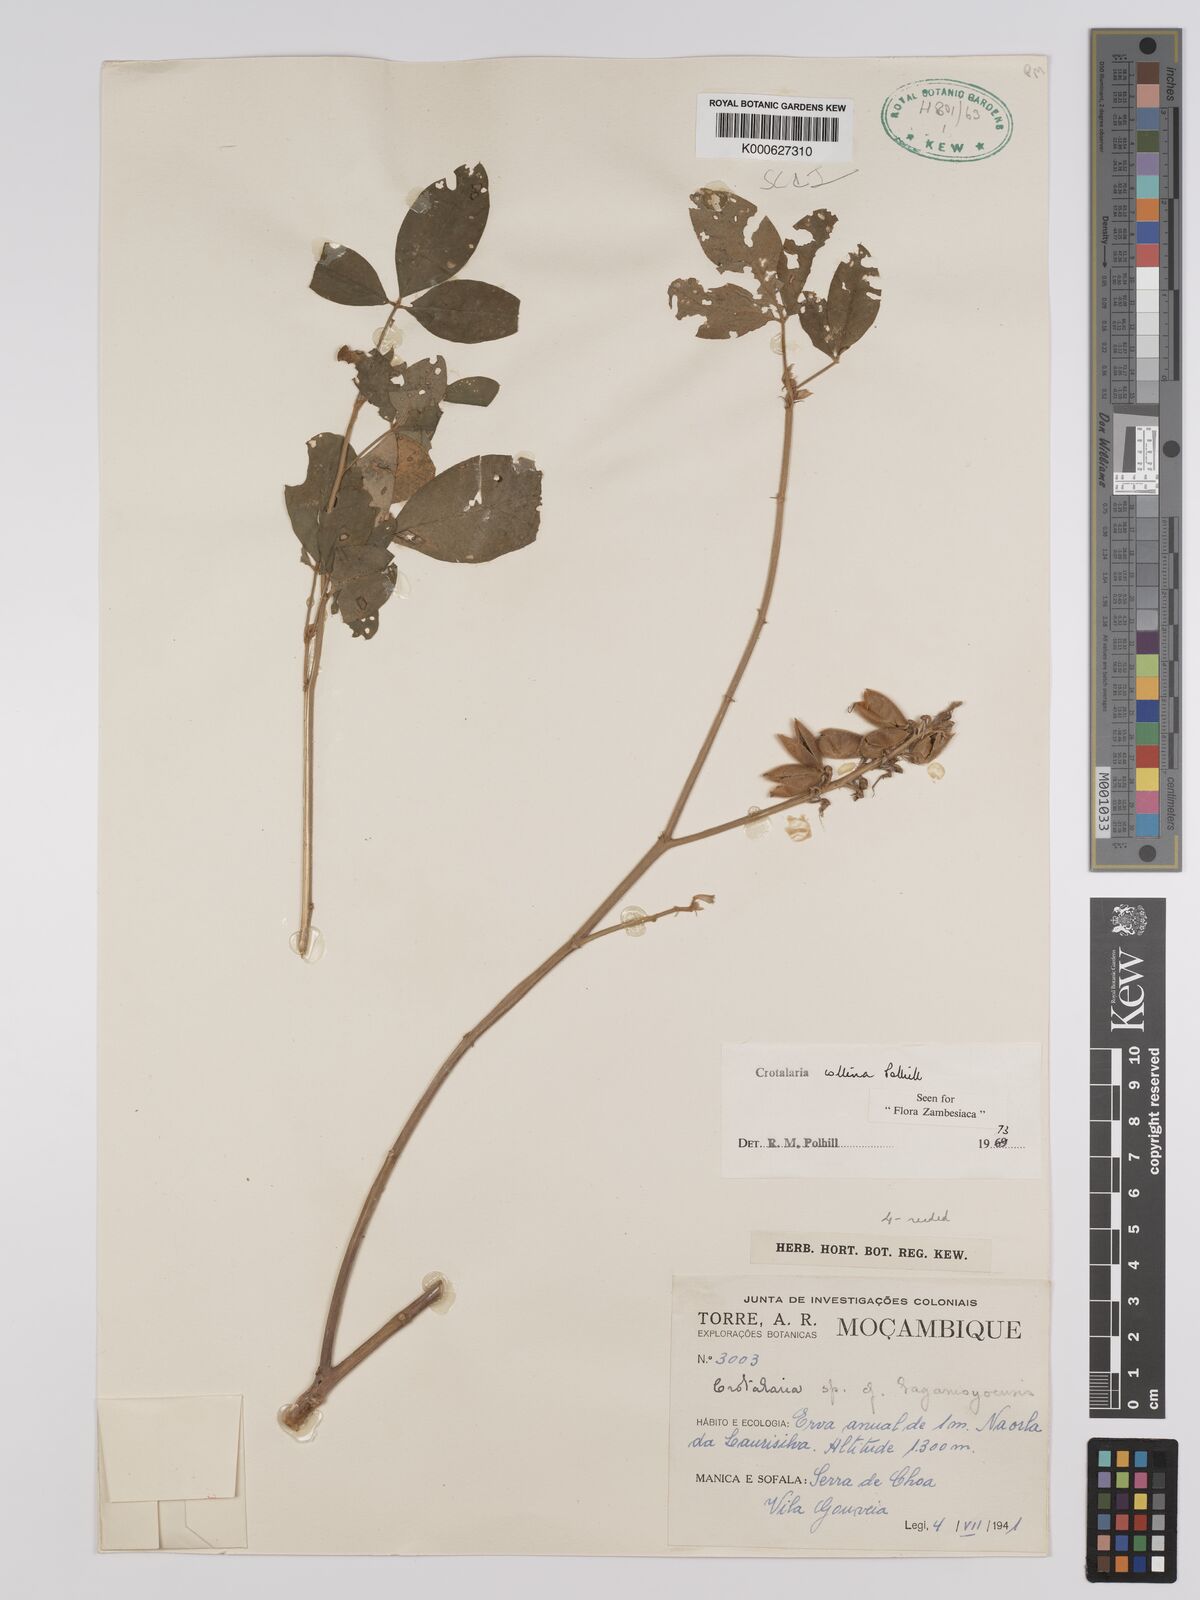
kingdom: Plantae
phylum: Tracheophyta
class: Magnoliopsida
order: Fabales
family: Fabaceae
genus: Crotalaria
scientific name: Crotalaria collina
